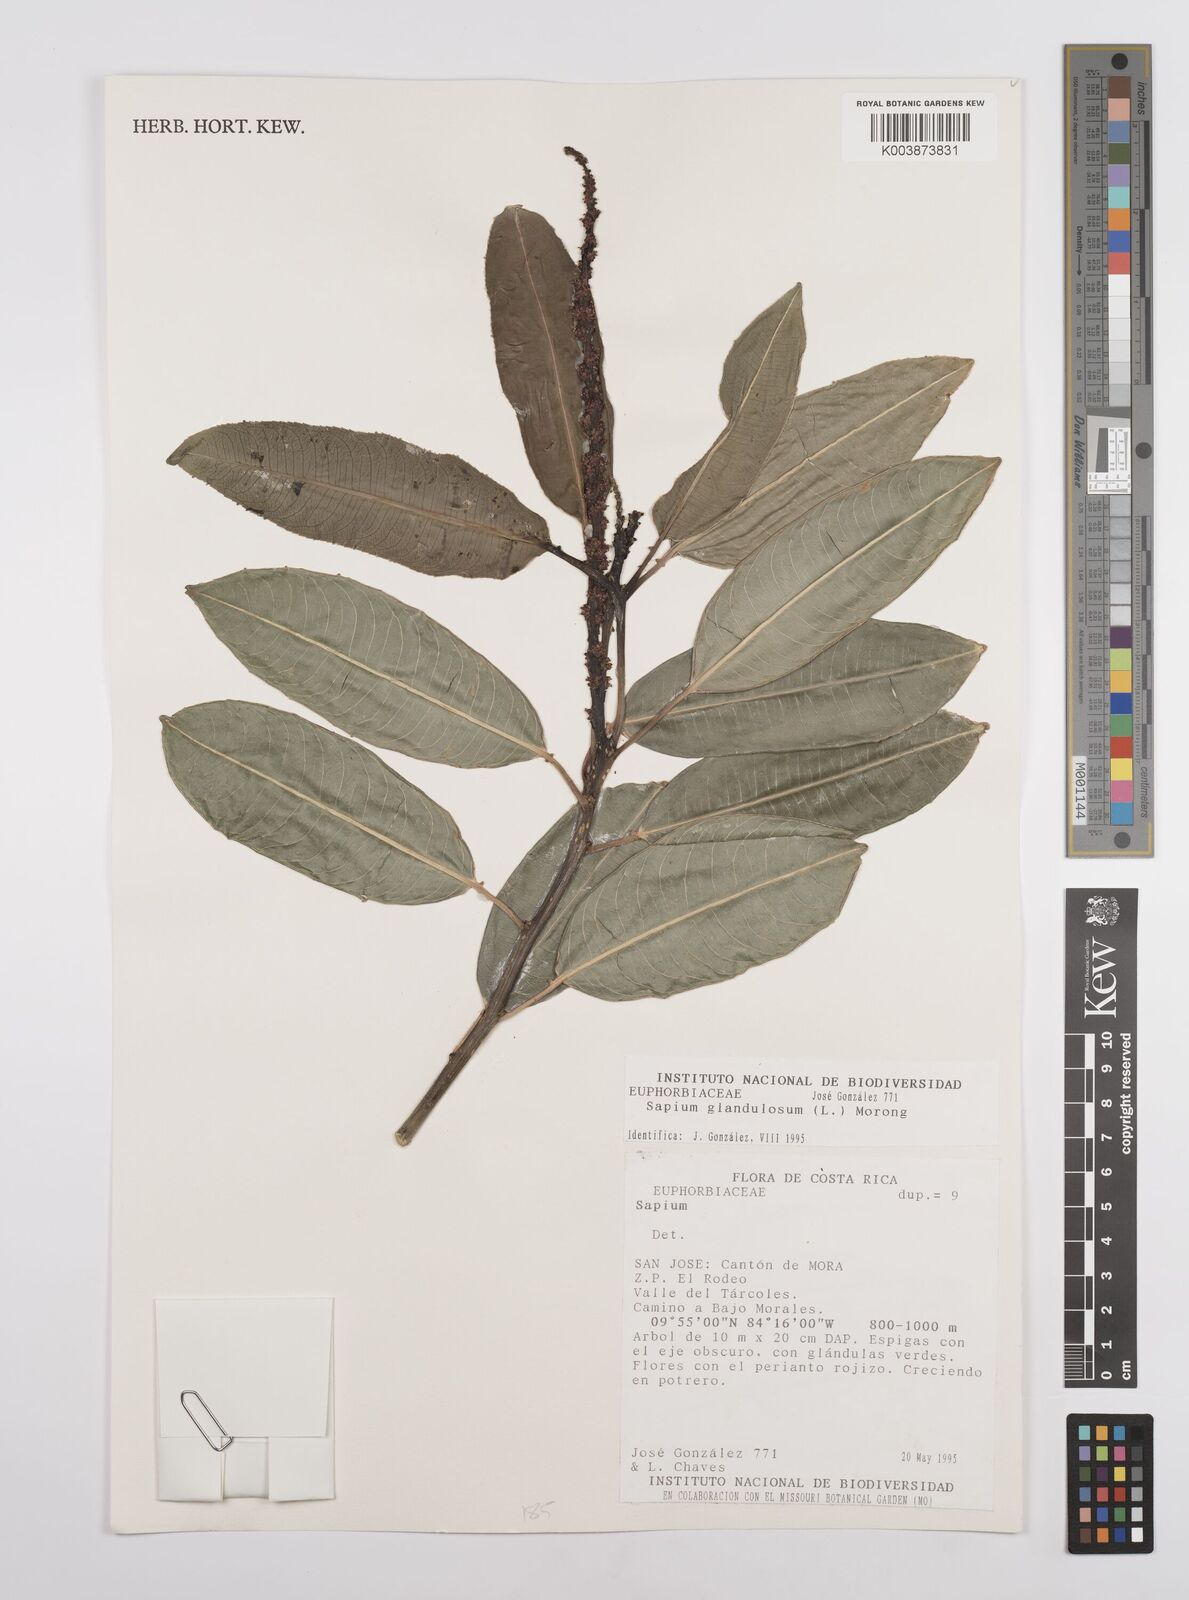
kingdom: Plantae
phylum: Tracheophyta
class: Magnoliopsida
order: Malpighiales
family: Euphorbiaceae
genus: Sapium
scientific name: Sapium glandulosum
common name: Milktree
